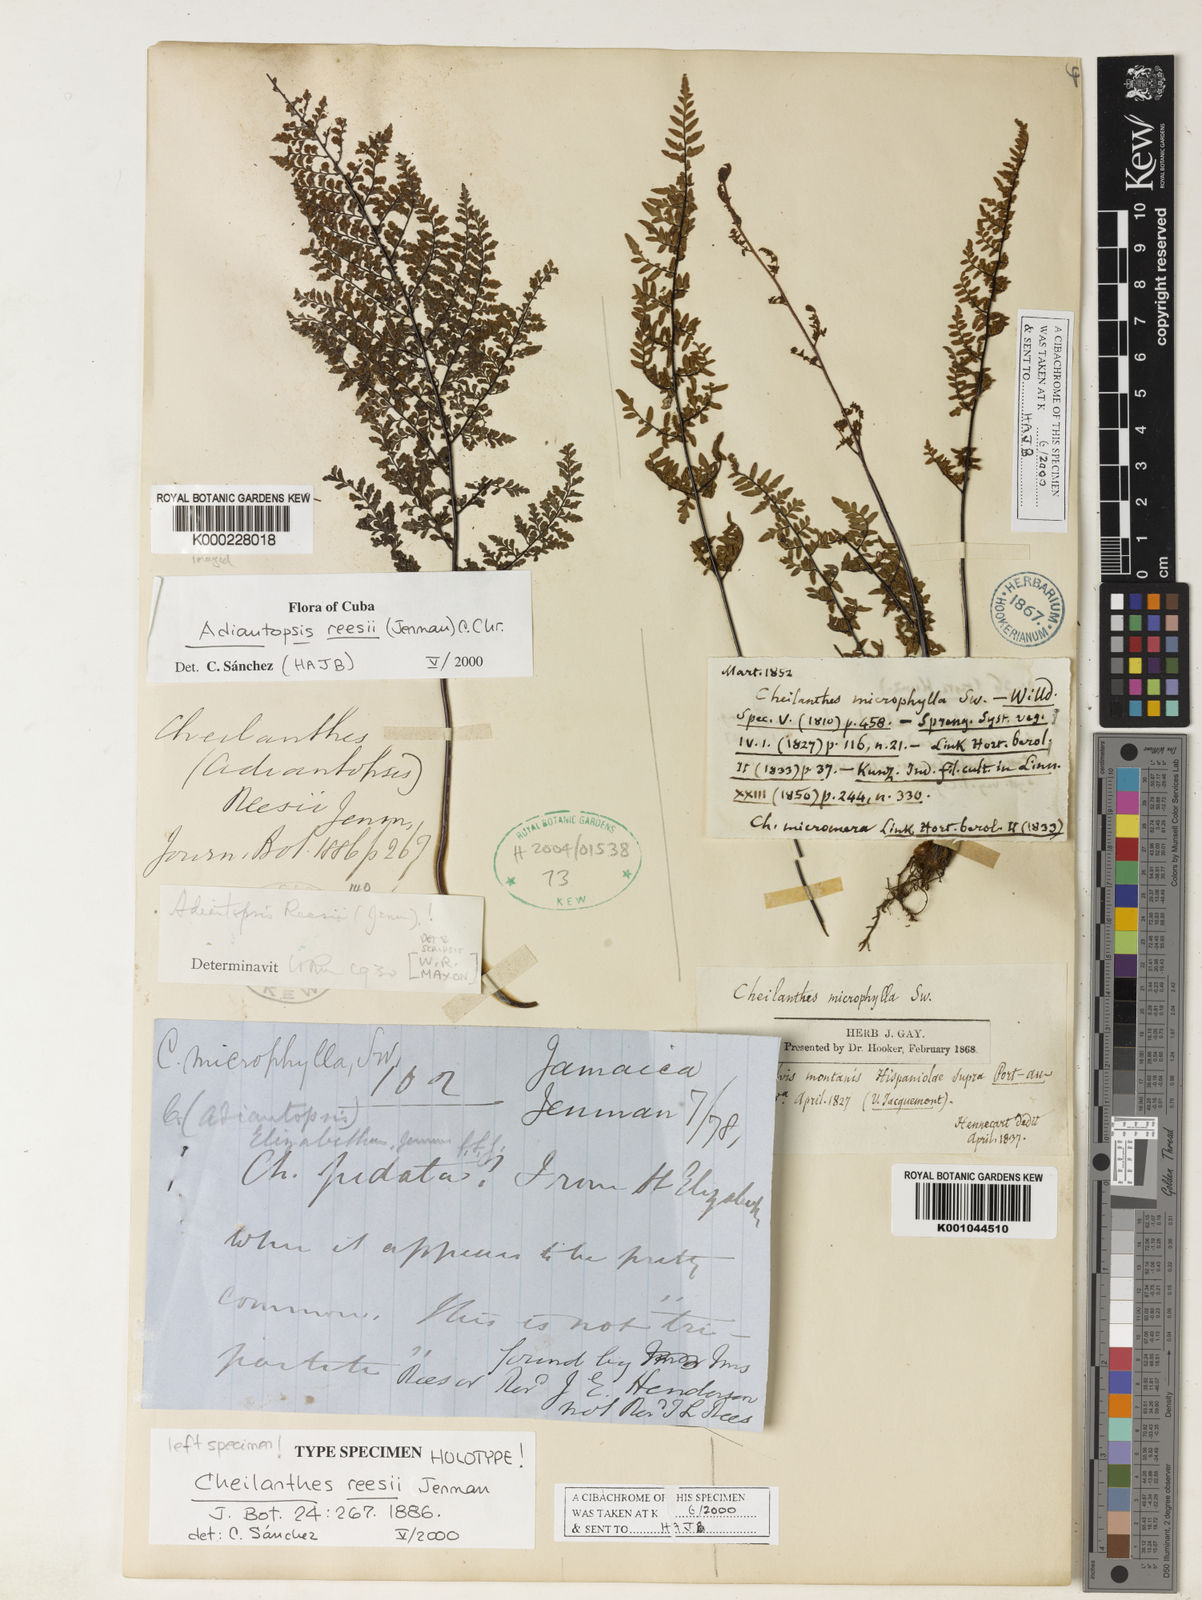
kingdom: Plantae
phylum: Tracheophyta
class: Polypodiopsida
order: Polypodiales
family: Pteridaceae
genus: Adiantopsis
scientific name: Adiantopsis reesii
